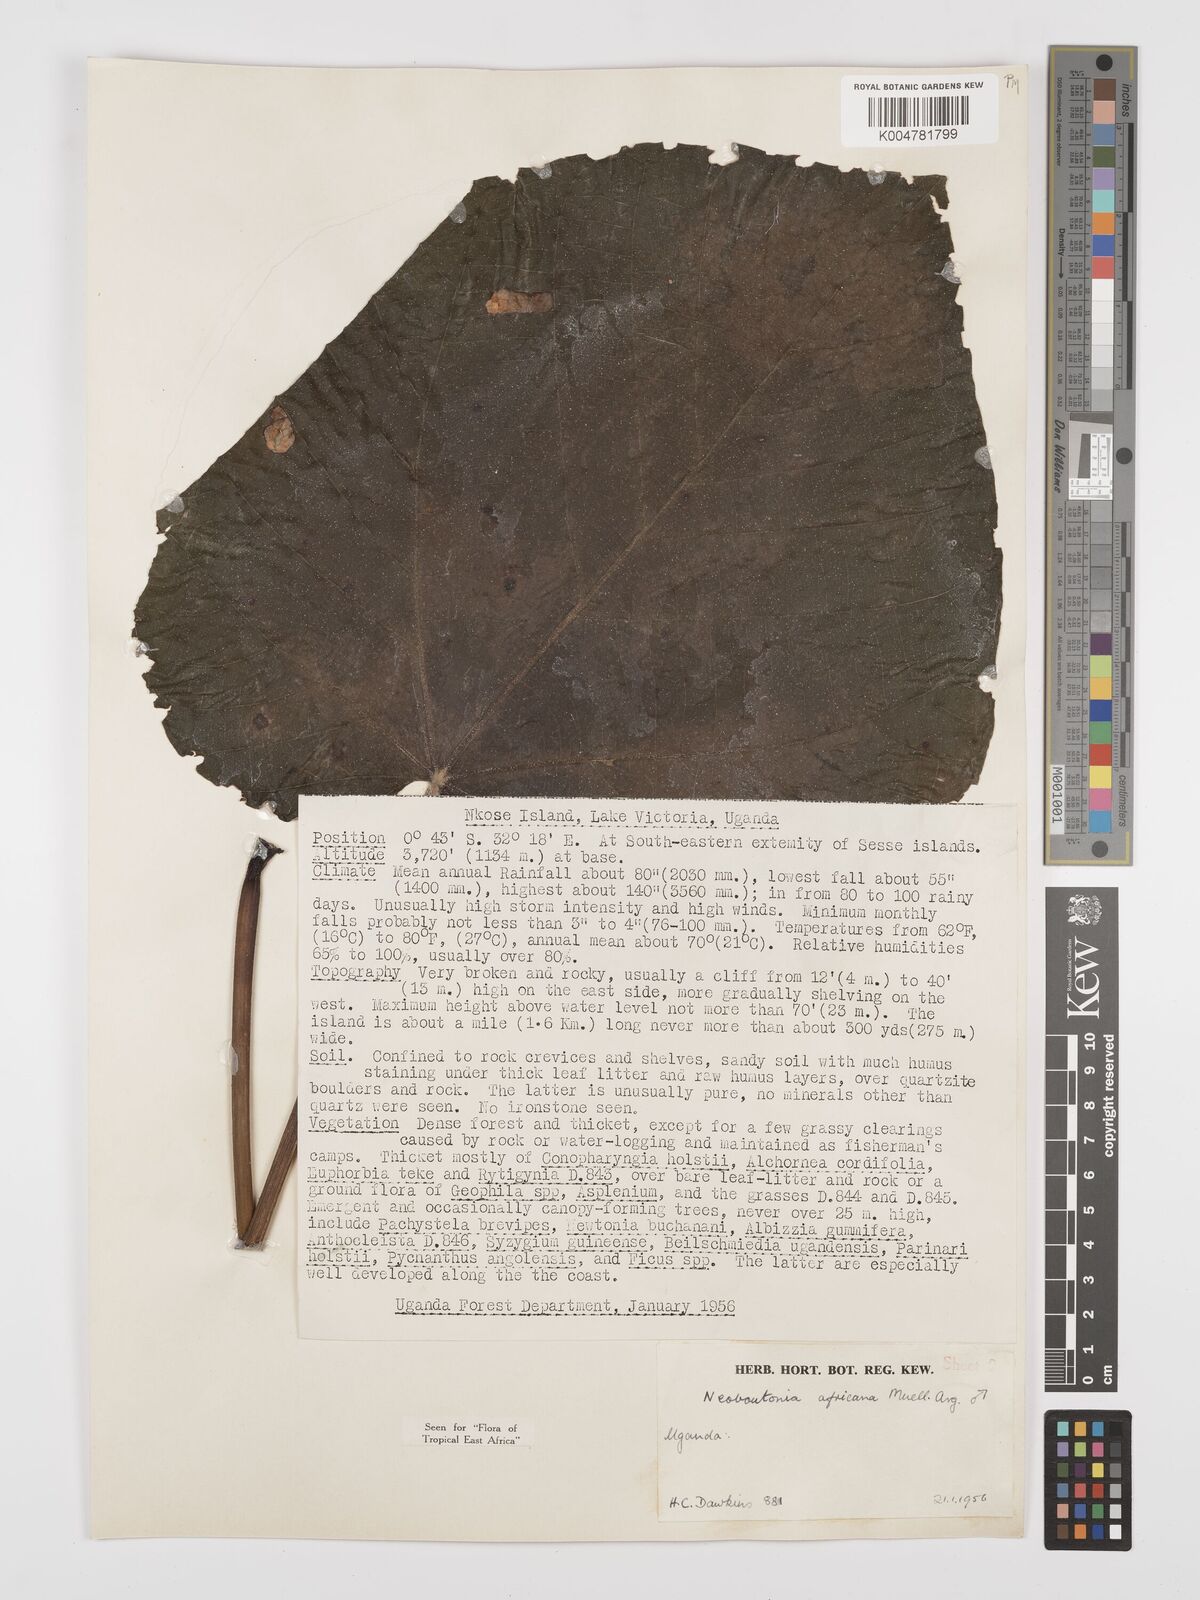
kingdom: Plantae
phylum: Tracheophyta
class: Magnoliopsida
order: Malpighiales
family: Euphorbiaceae
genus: Neoboutonia
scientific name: Neoboutonia melleri
